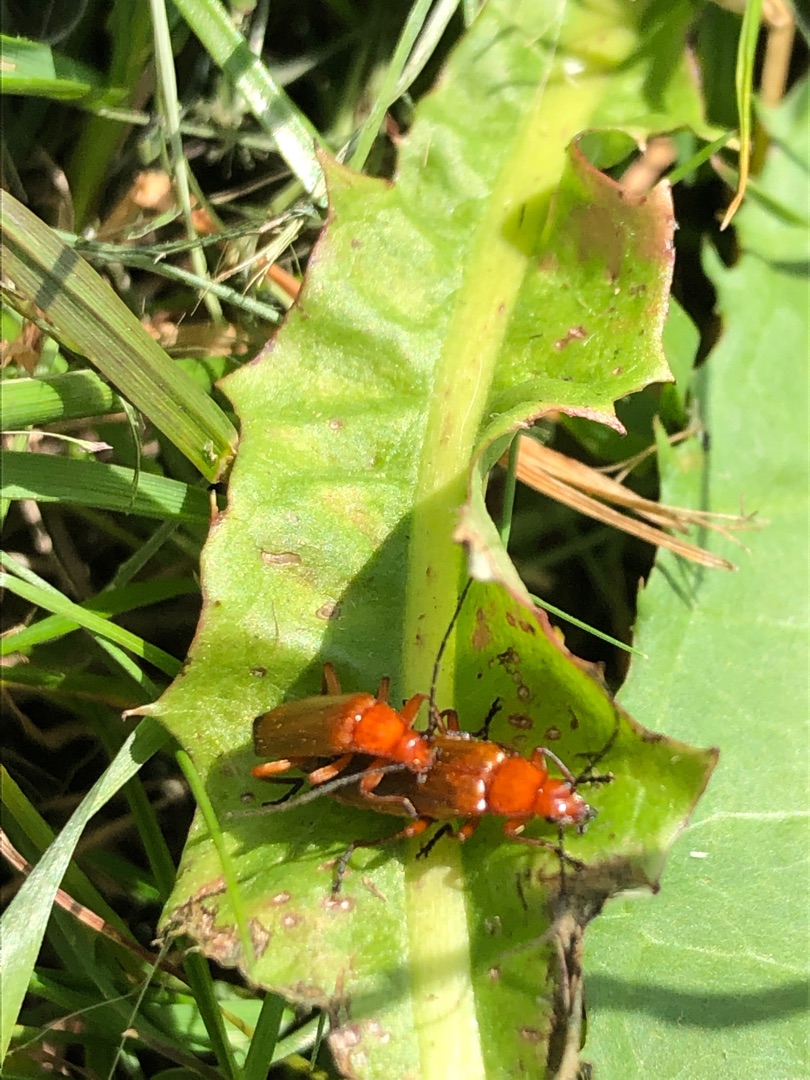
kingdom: Animalia
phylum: Arthropoda
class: Insecta
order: Coleoptera
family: Cantharidae
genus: Rhagonycha
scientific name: Rhagonycha fulva
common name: Præstebille
